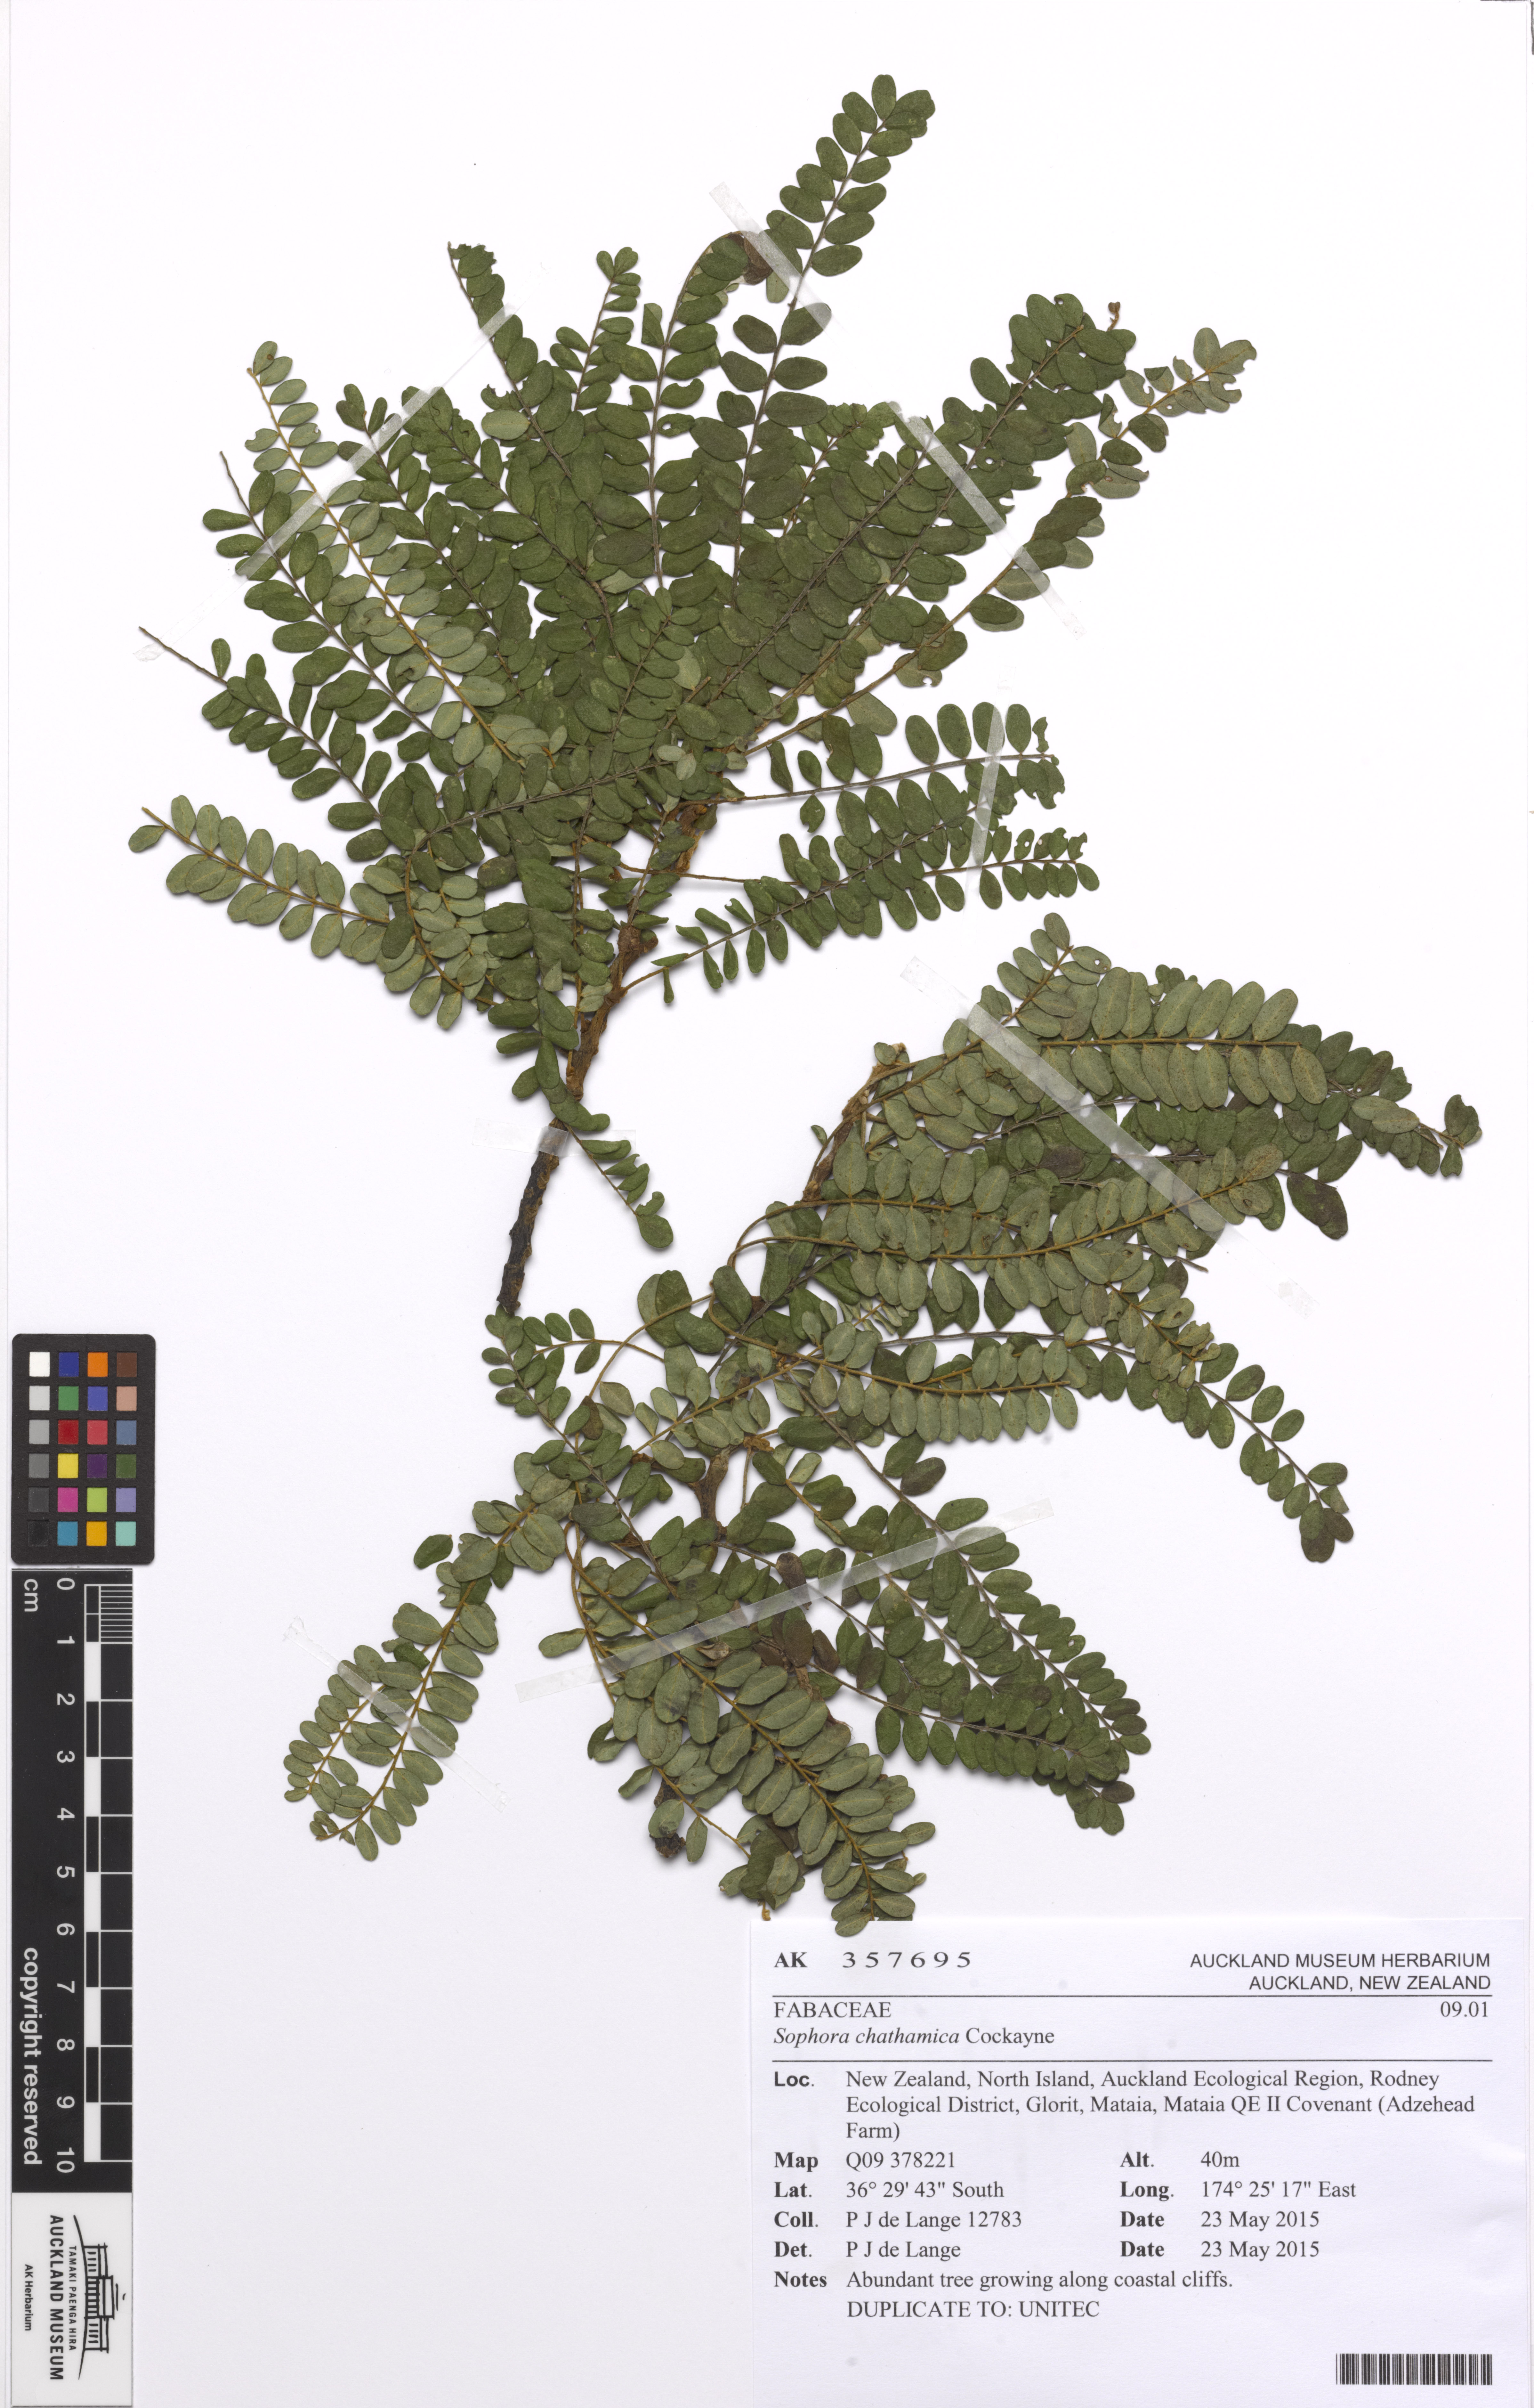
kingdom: Plantae
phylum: Tracheophyta
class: Magnoliopsida
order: Fabales
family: Fabaceae
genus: Sophora
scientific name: Sophora chathamica
